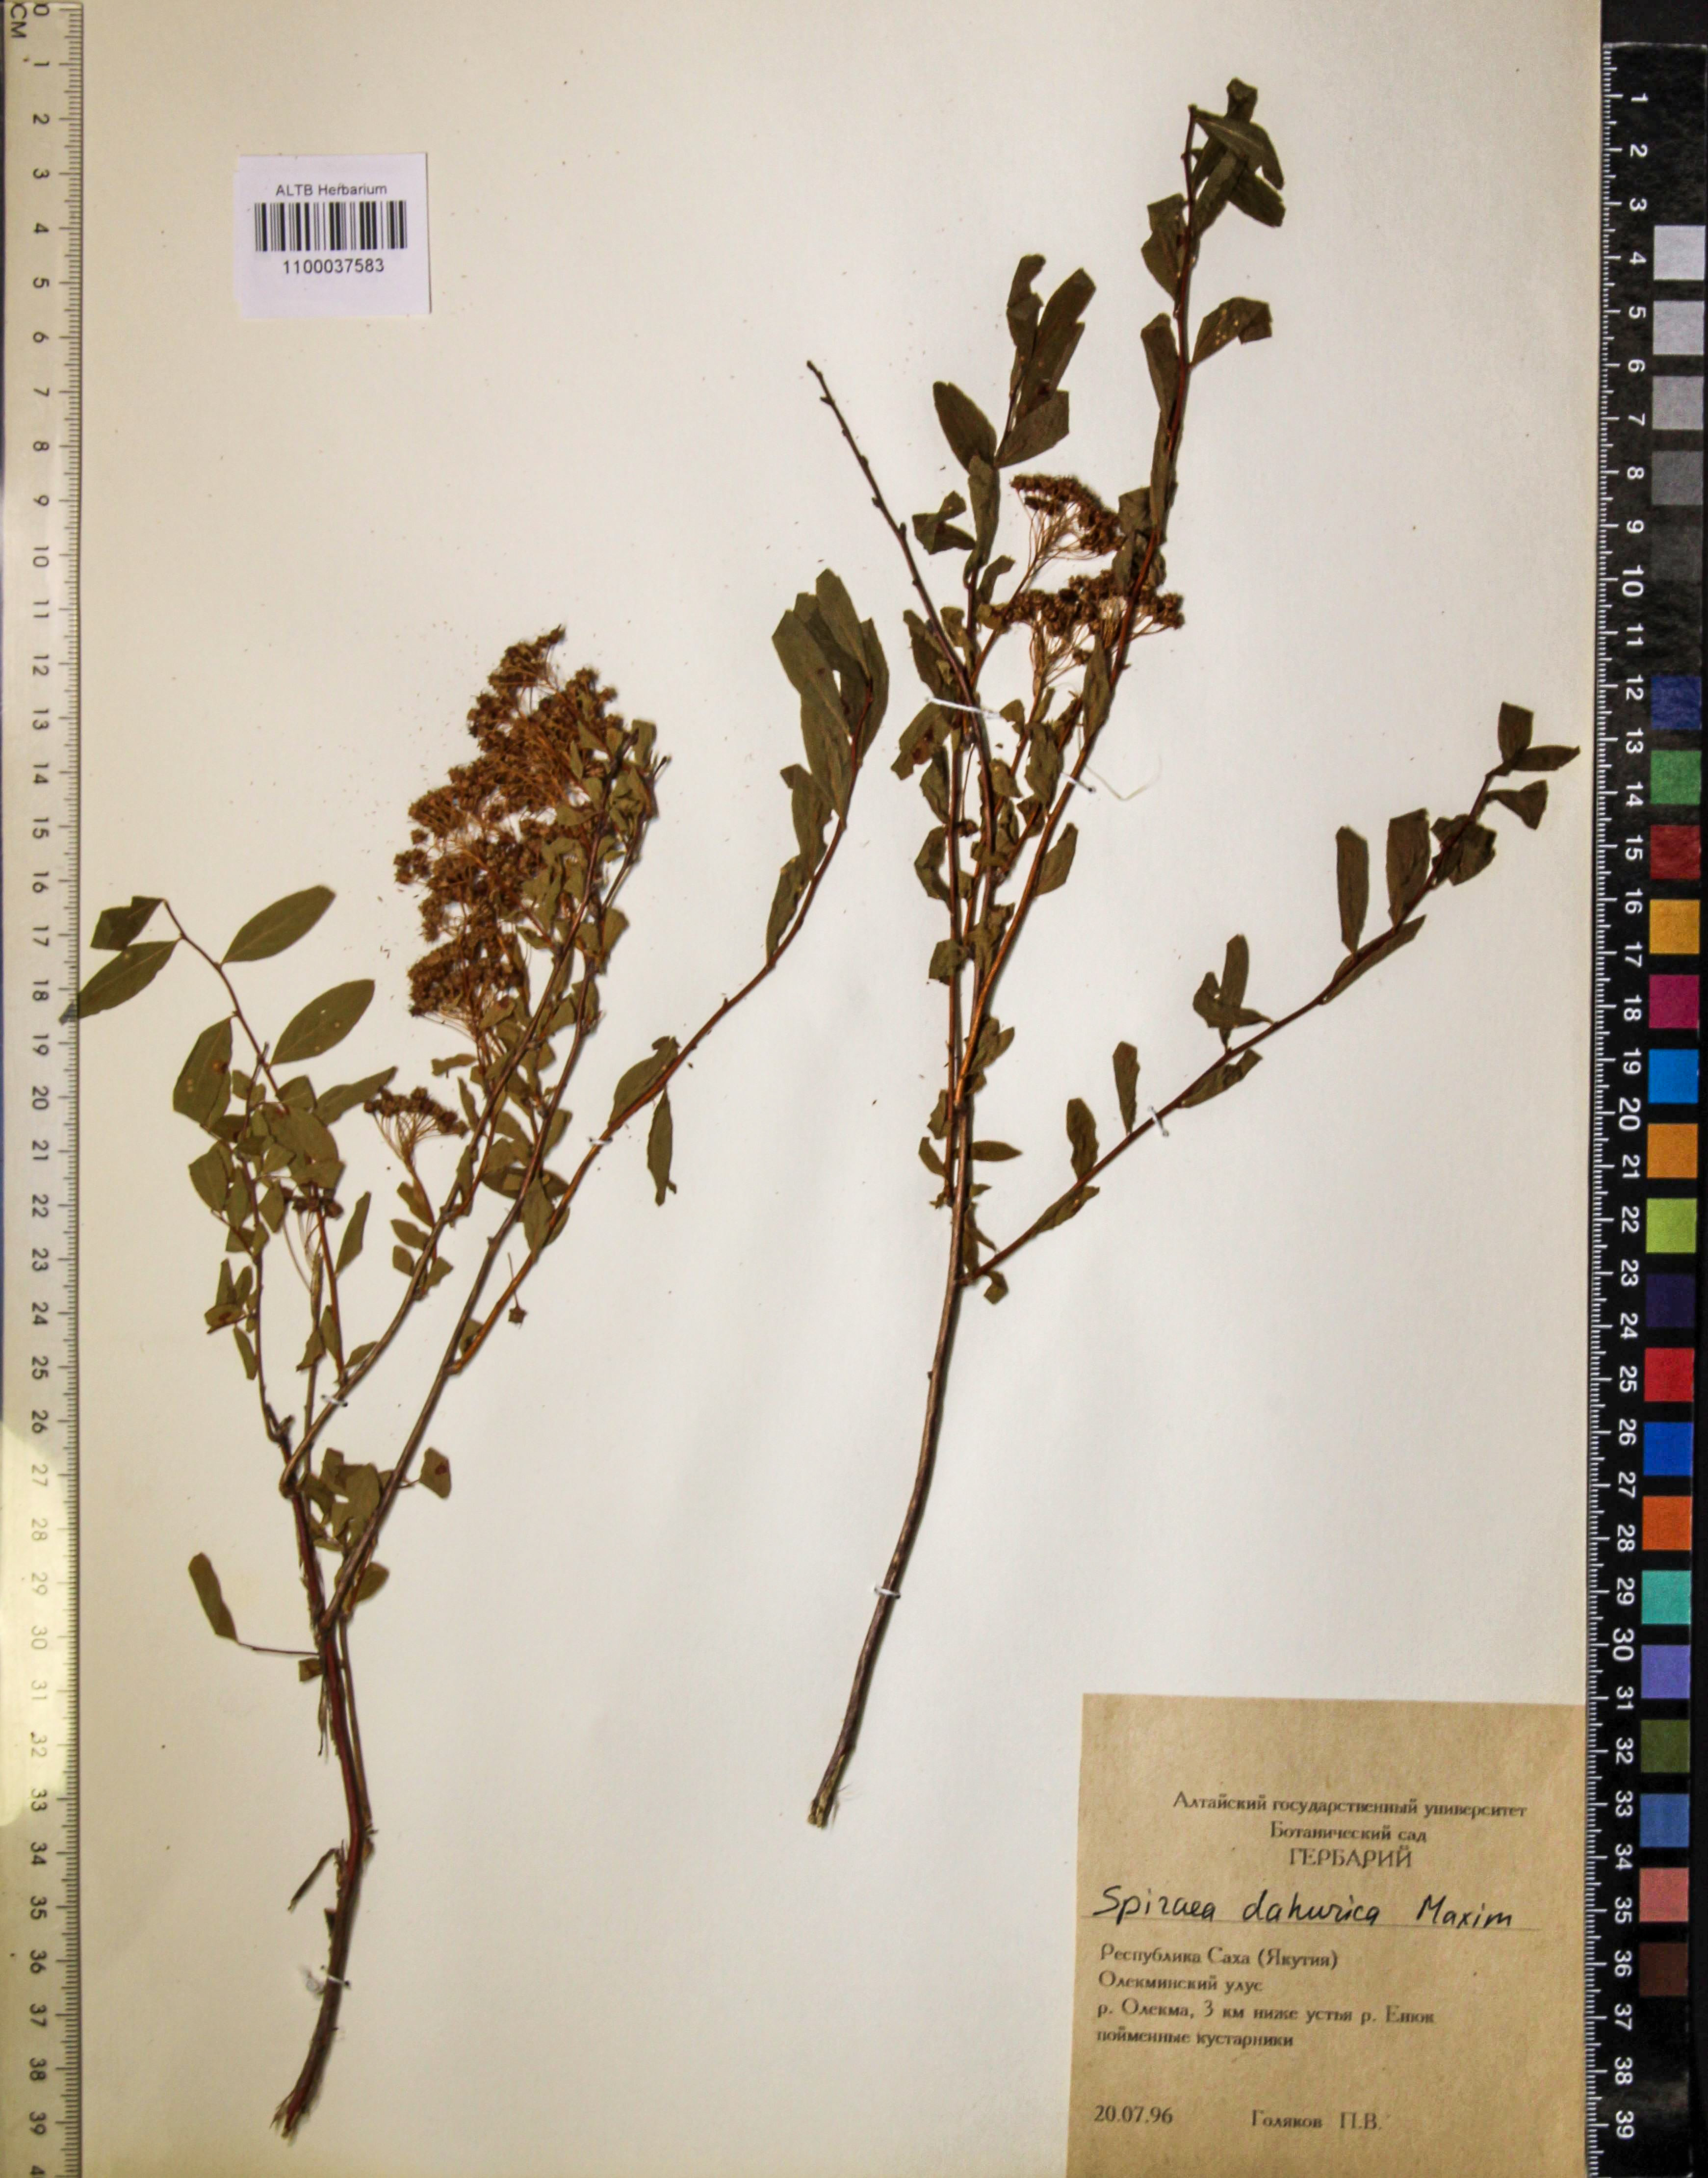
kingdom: Plantae
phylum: Tracheophyta
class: Magnoliopsida
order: Rosales
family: Rosaceae
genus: Spiraea
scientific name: Spiraea dahurica
